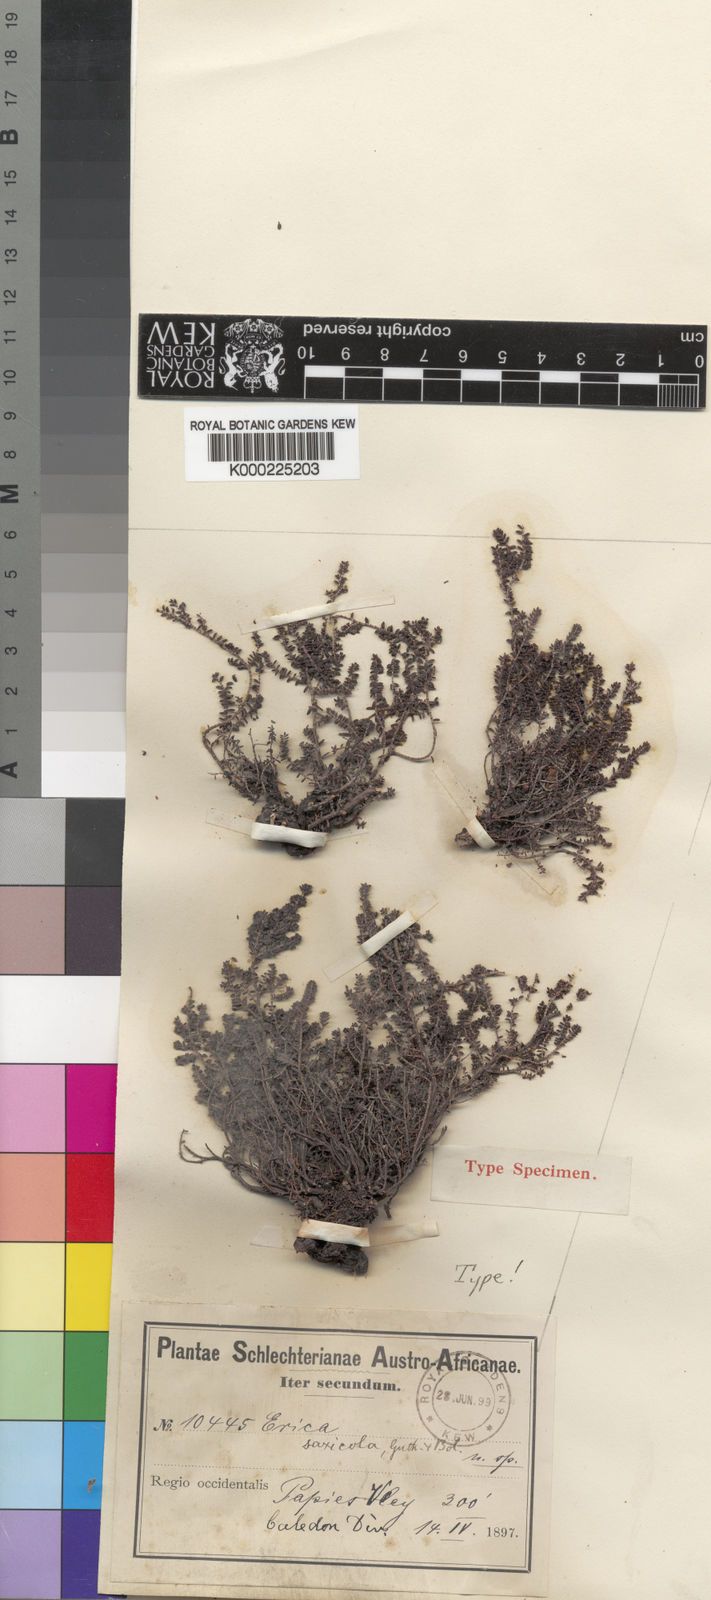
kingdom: Plantae
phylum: Tracheophyta
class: Magnoliopsida
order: Ericales
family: Ericaceae
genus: Erica
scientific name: Erica saxicola
